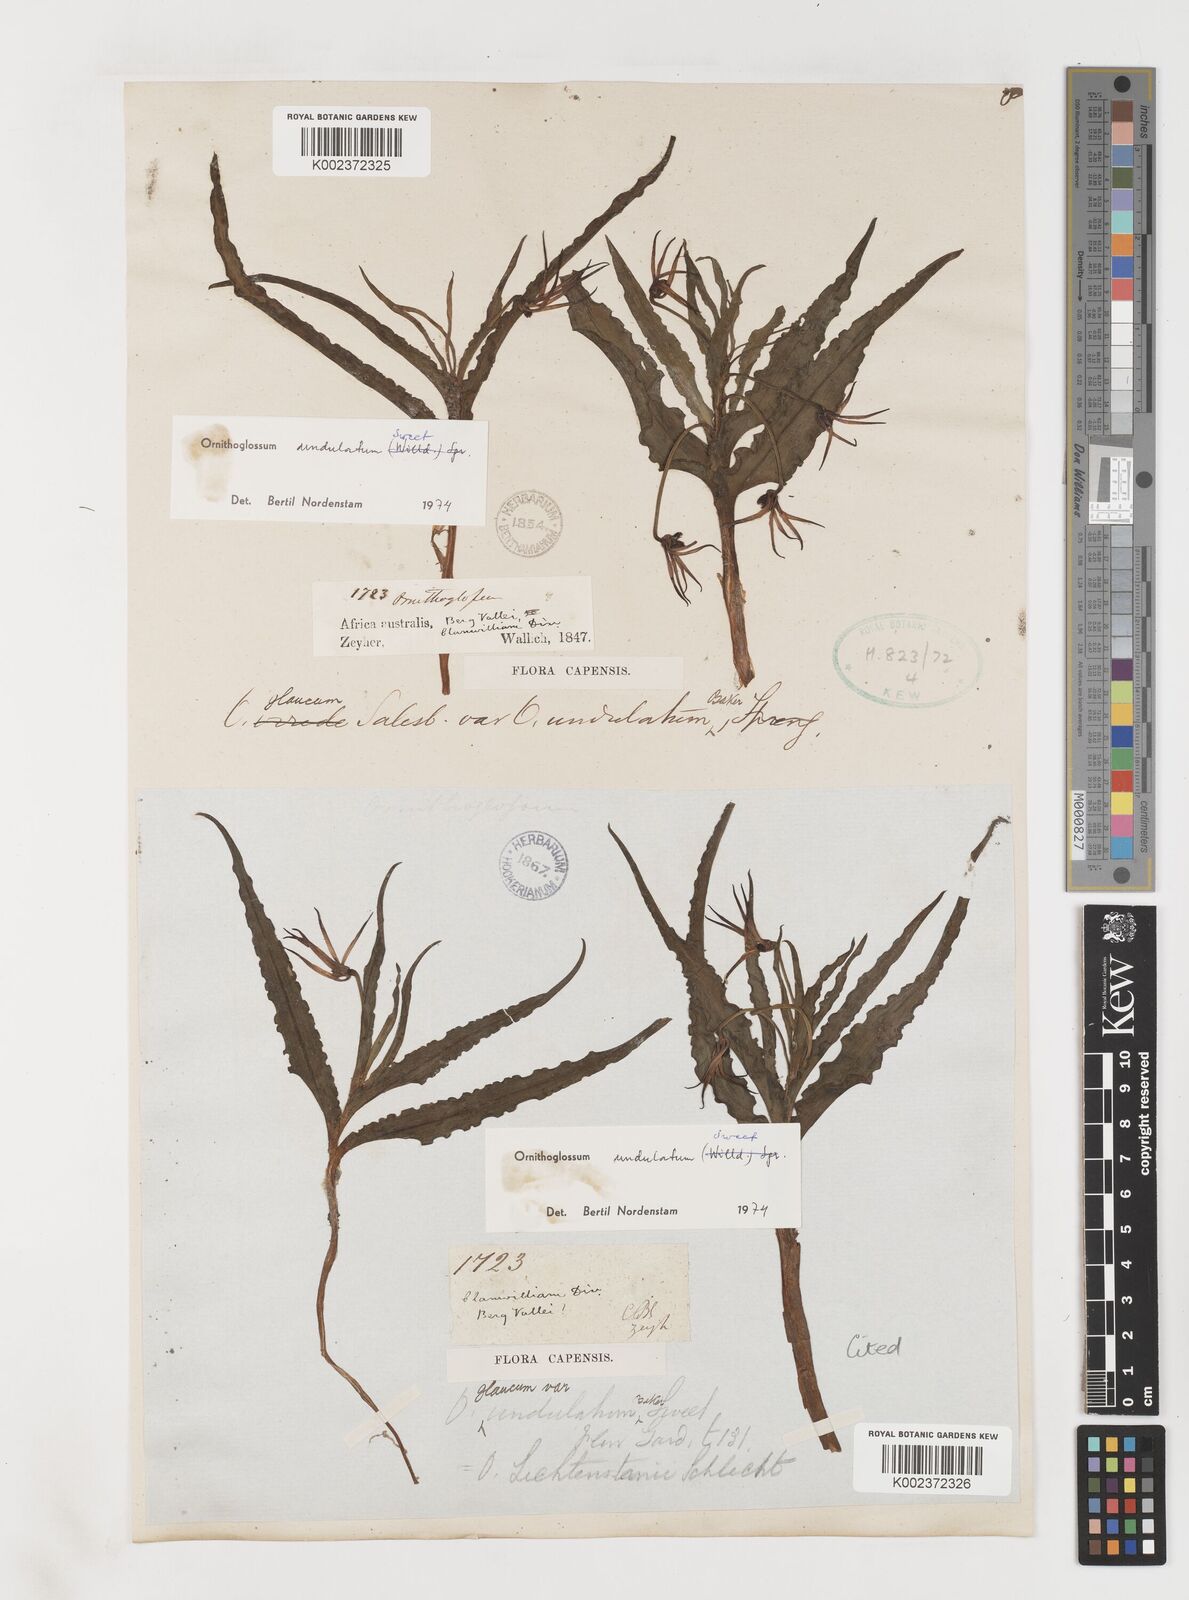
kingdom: Plantae
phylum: Tracheophyta
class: Liliopsida
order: Liliales
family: Colchicaceae
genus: Ornithoglossum
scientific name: Ornithoglossum undulatum
